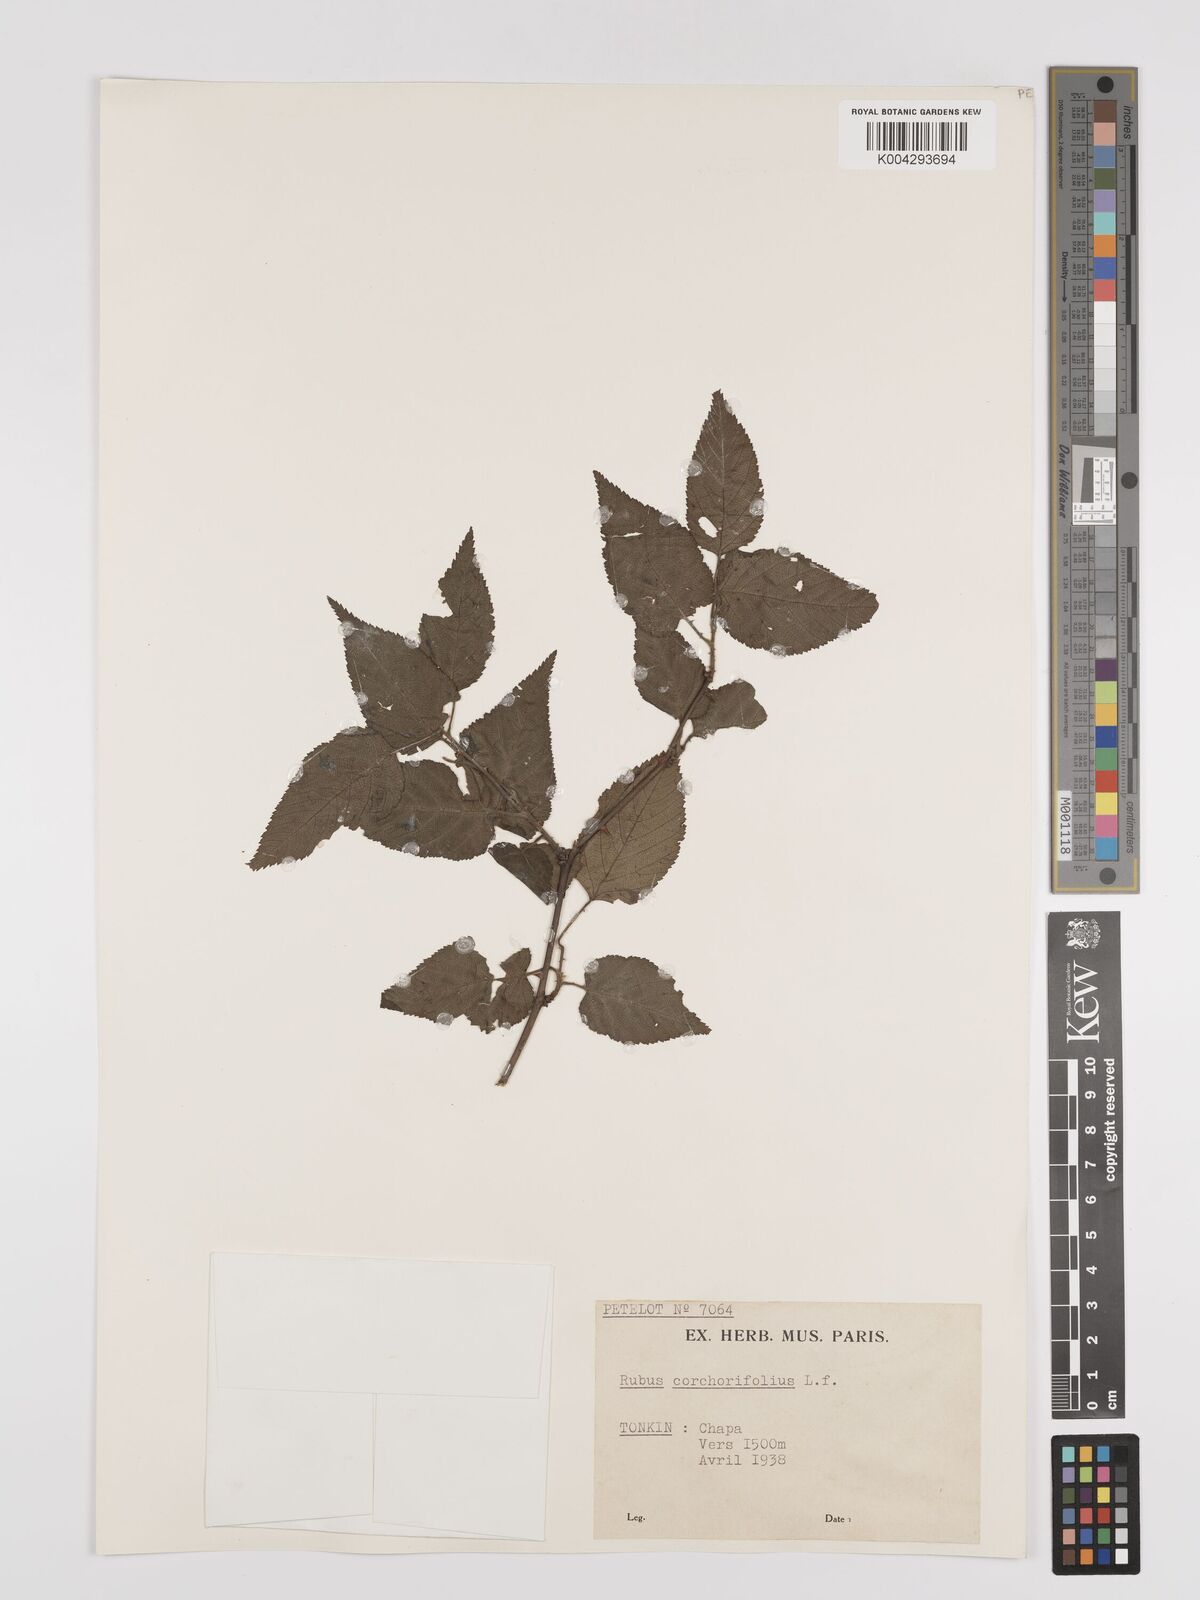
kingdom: Plantae
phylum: Tracheophyta
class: Magnoliopsida
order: Rosales
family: Rosaceae
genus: Rubus
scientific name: Rubus corchorifolius
